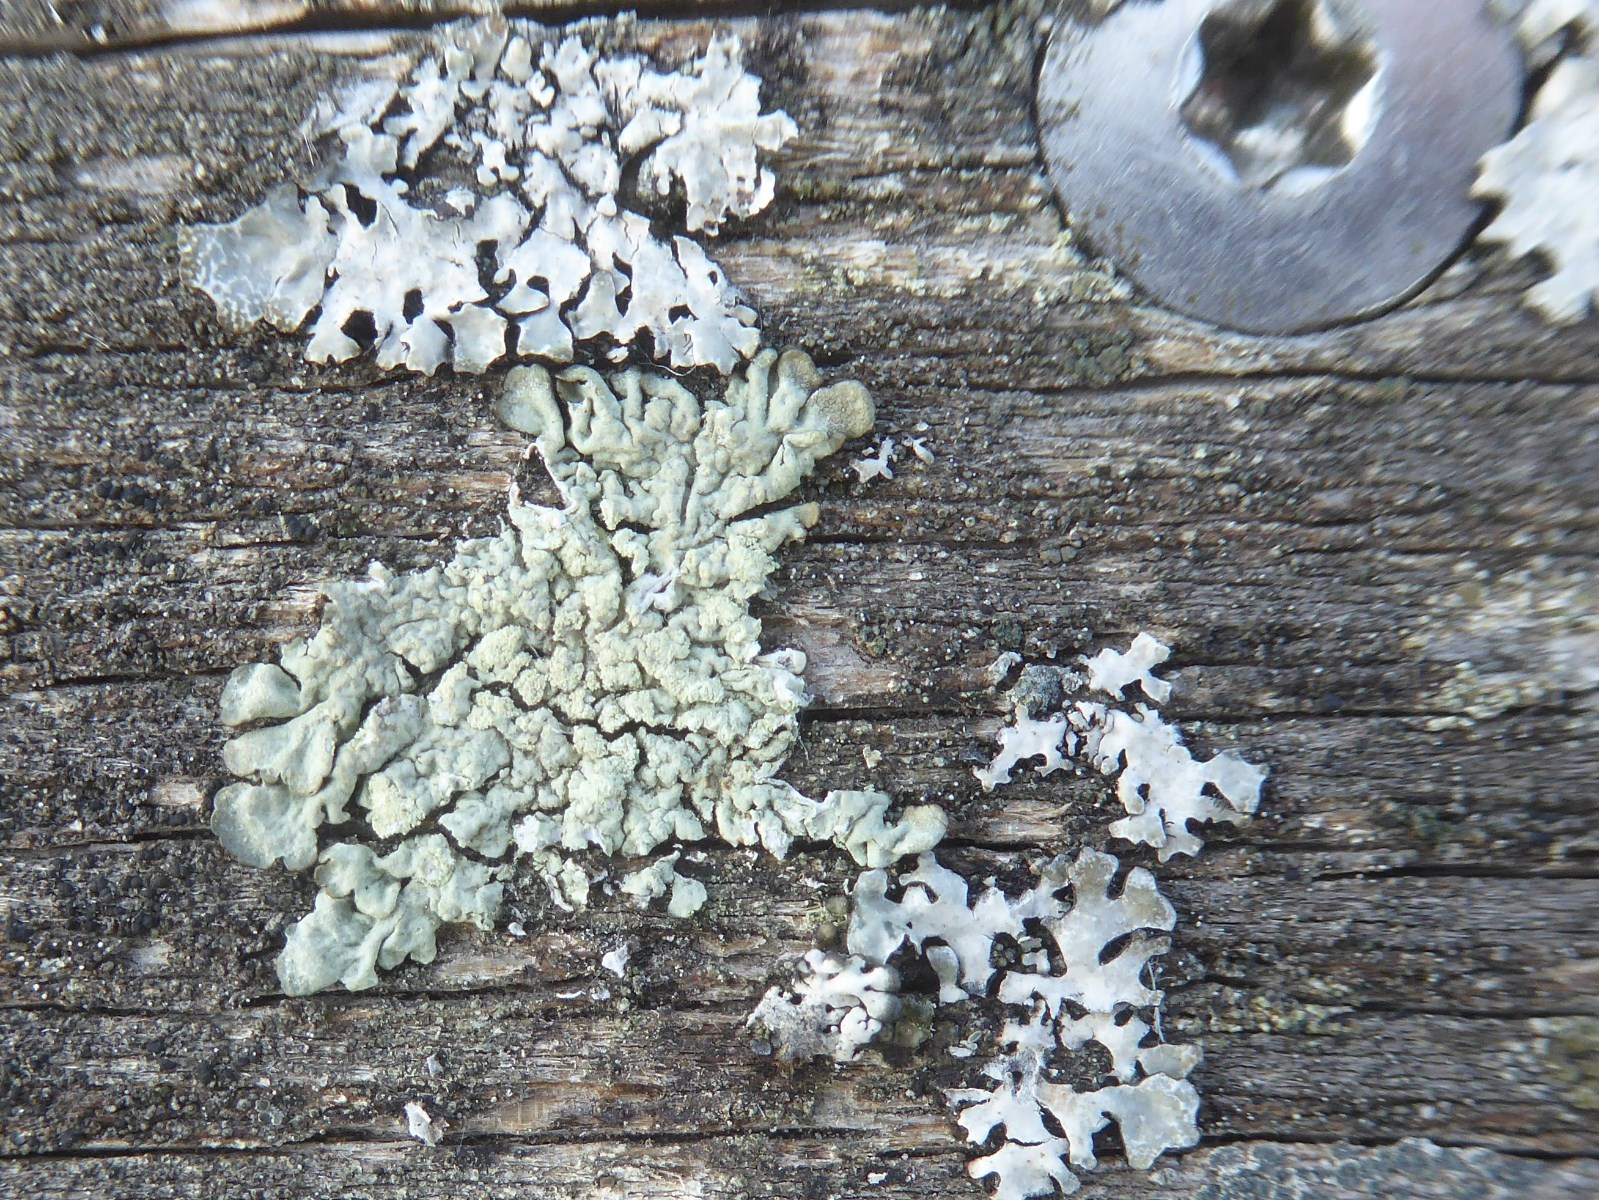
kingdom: Fungi
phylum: Ascomycota
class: Lecanoromycetes
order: Lecanorales
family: Parmeliaceae
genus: Parmeliopsis
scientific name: Parmeliopsis ambigua
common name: gul stolpelav
